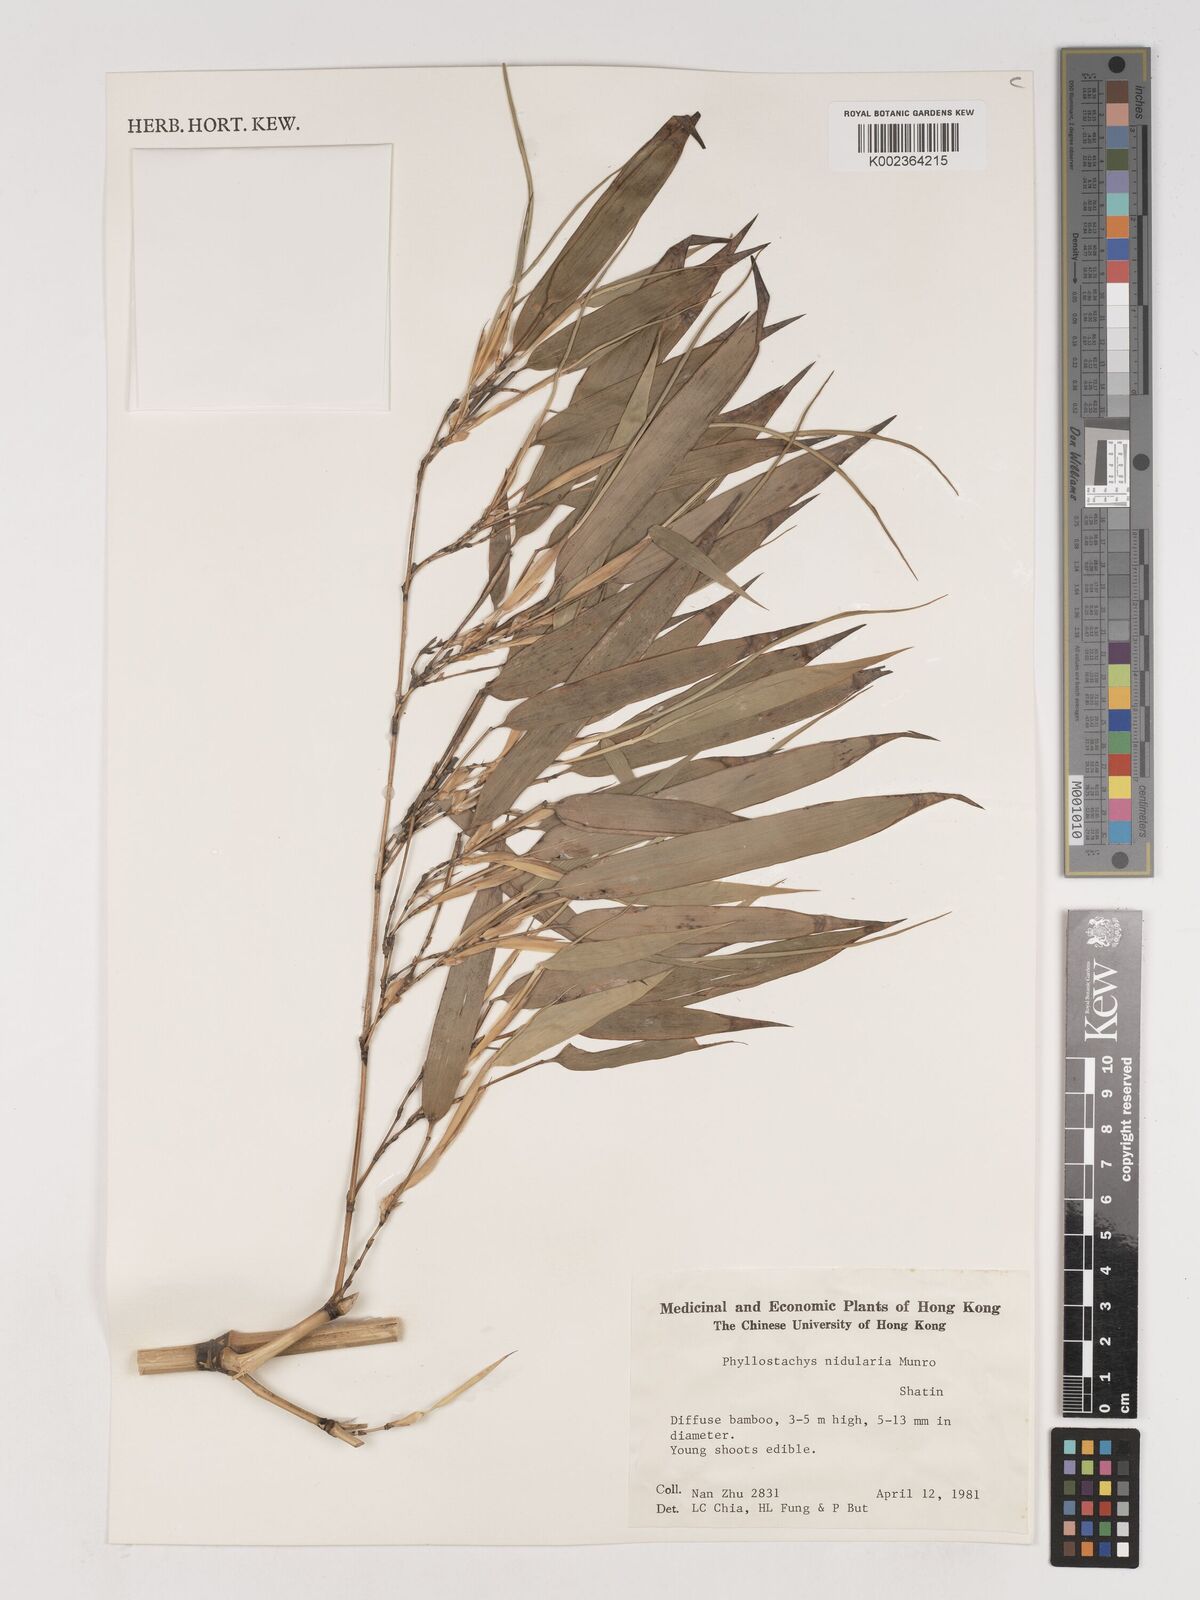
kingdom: Plantae
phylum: Tracheophyta
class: Liliopsida
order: Poales
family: Poaceae
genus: Phyllostachys
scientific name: Phyllostachys nidularia
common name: Broom bamboo
